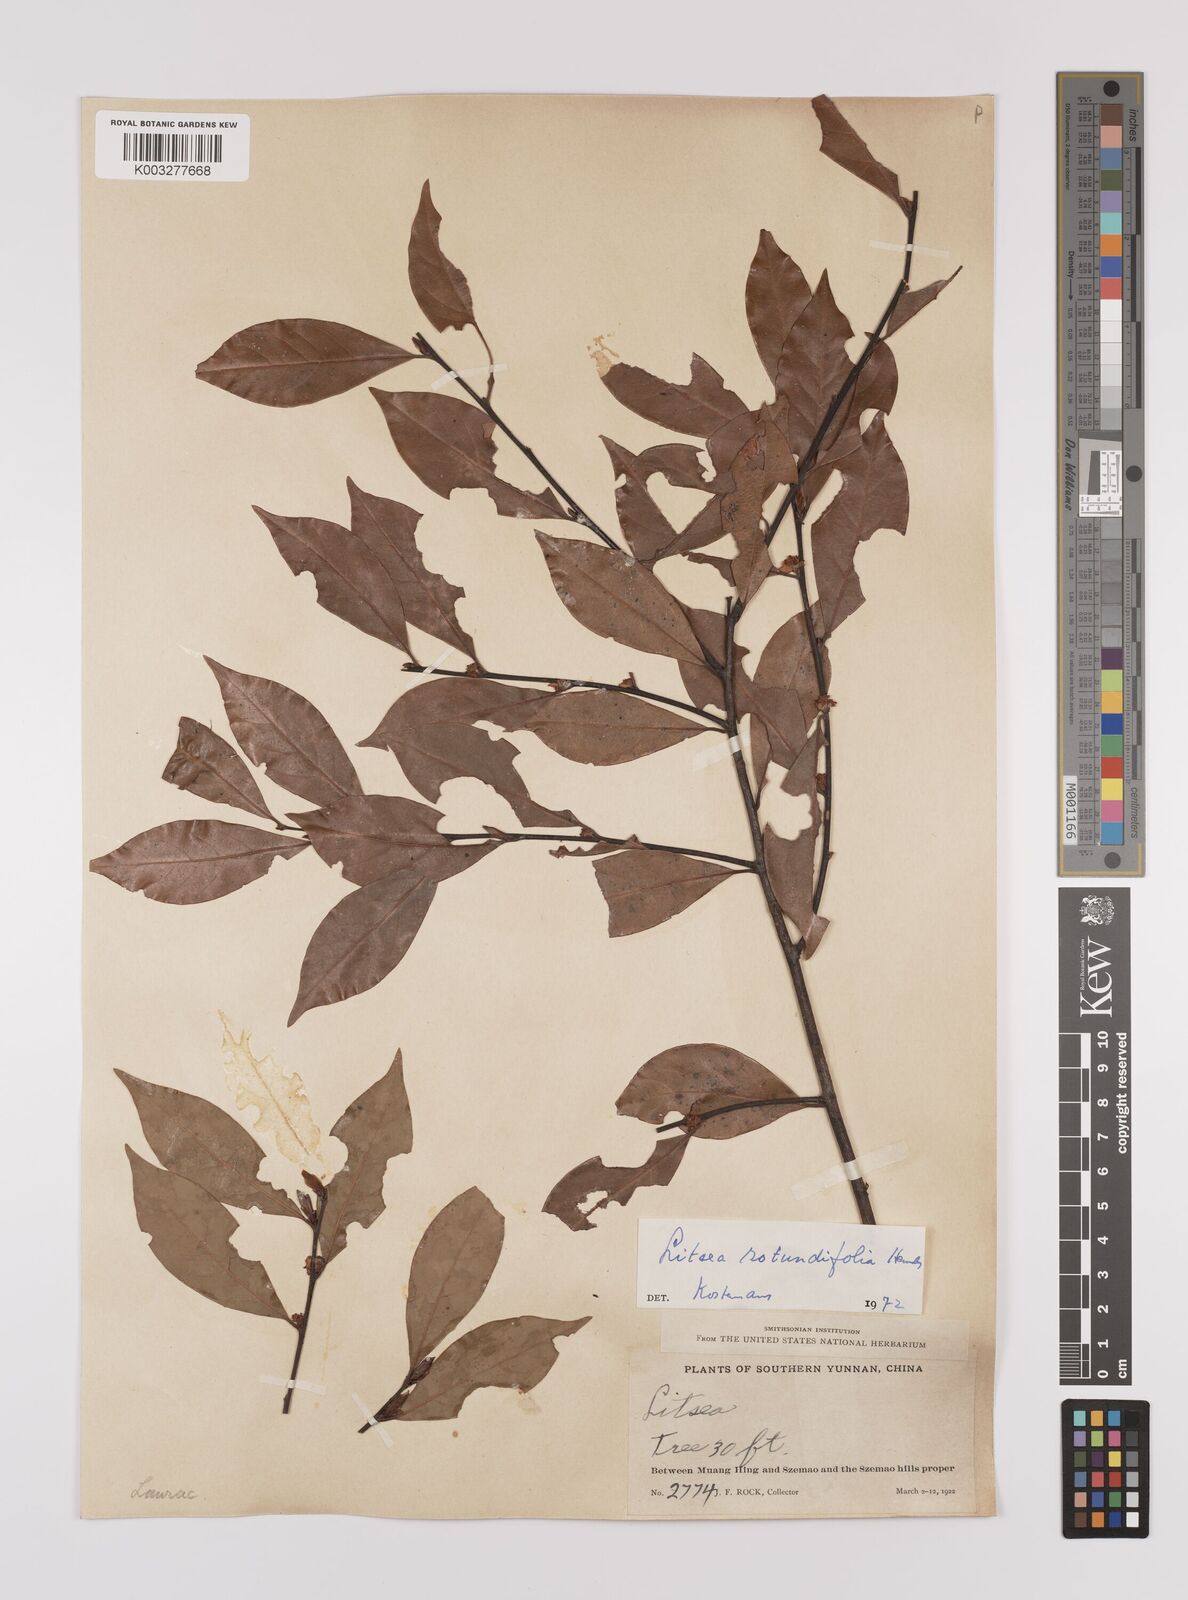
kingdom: Plantae
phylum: Tracheophyta
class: Magnoliopsida
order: Laurales
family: Lauraceae
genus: Litsea
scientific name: Litsea rotundifolia
